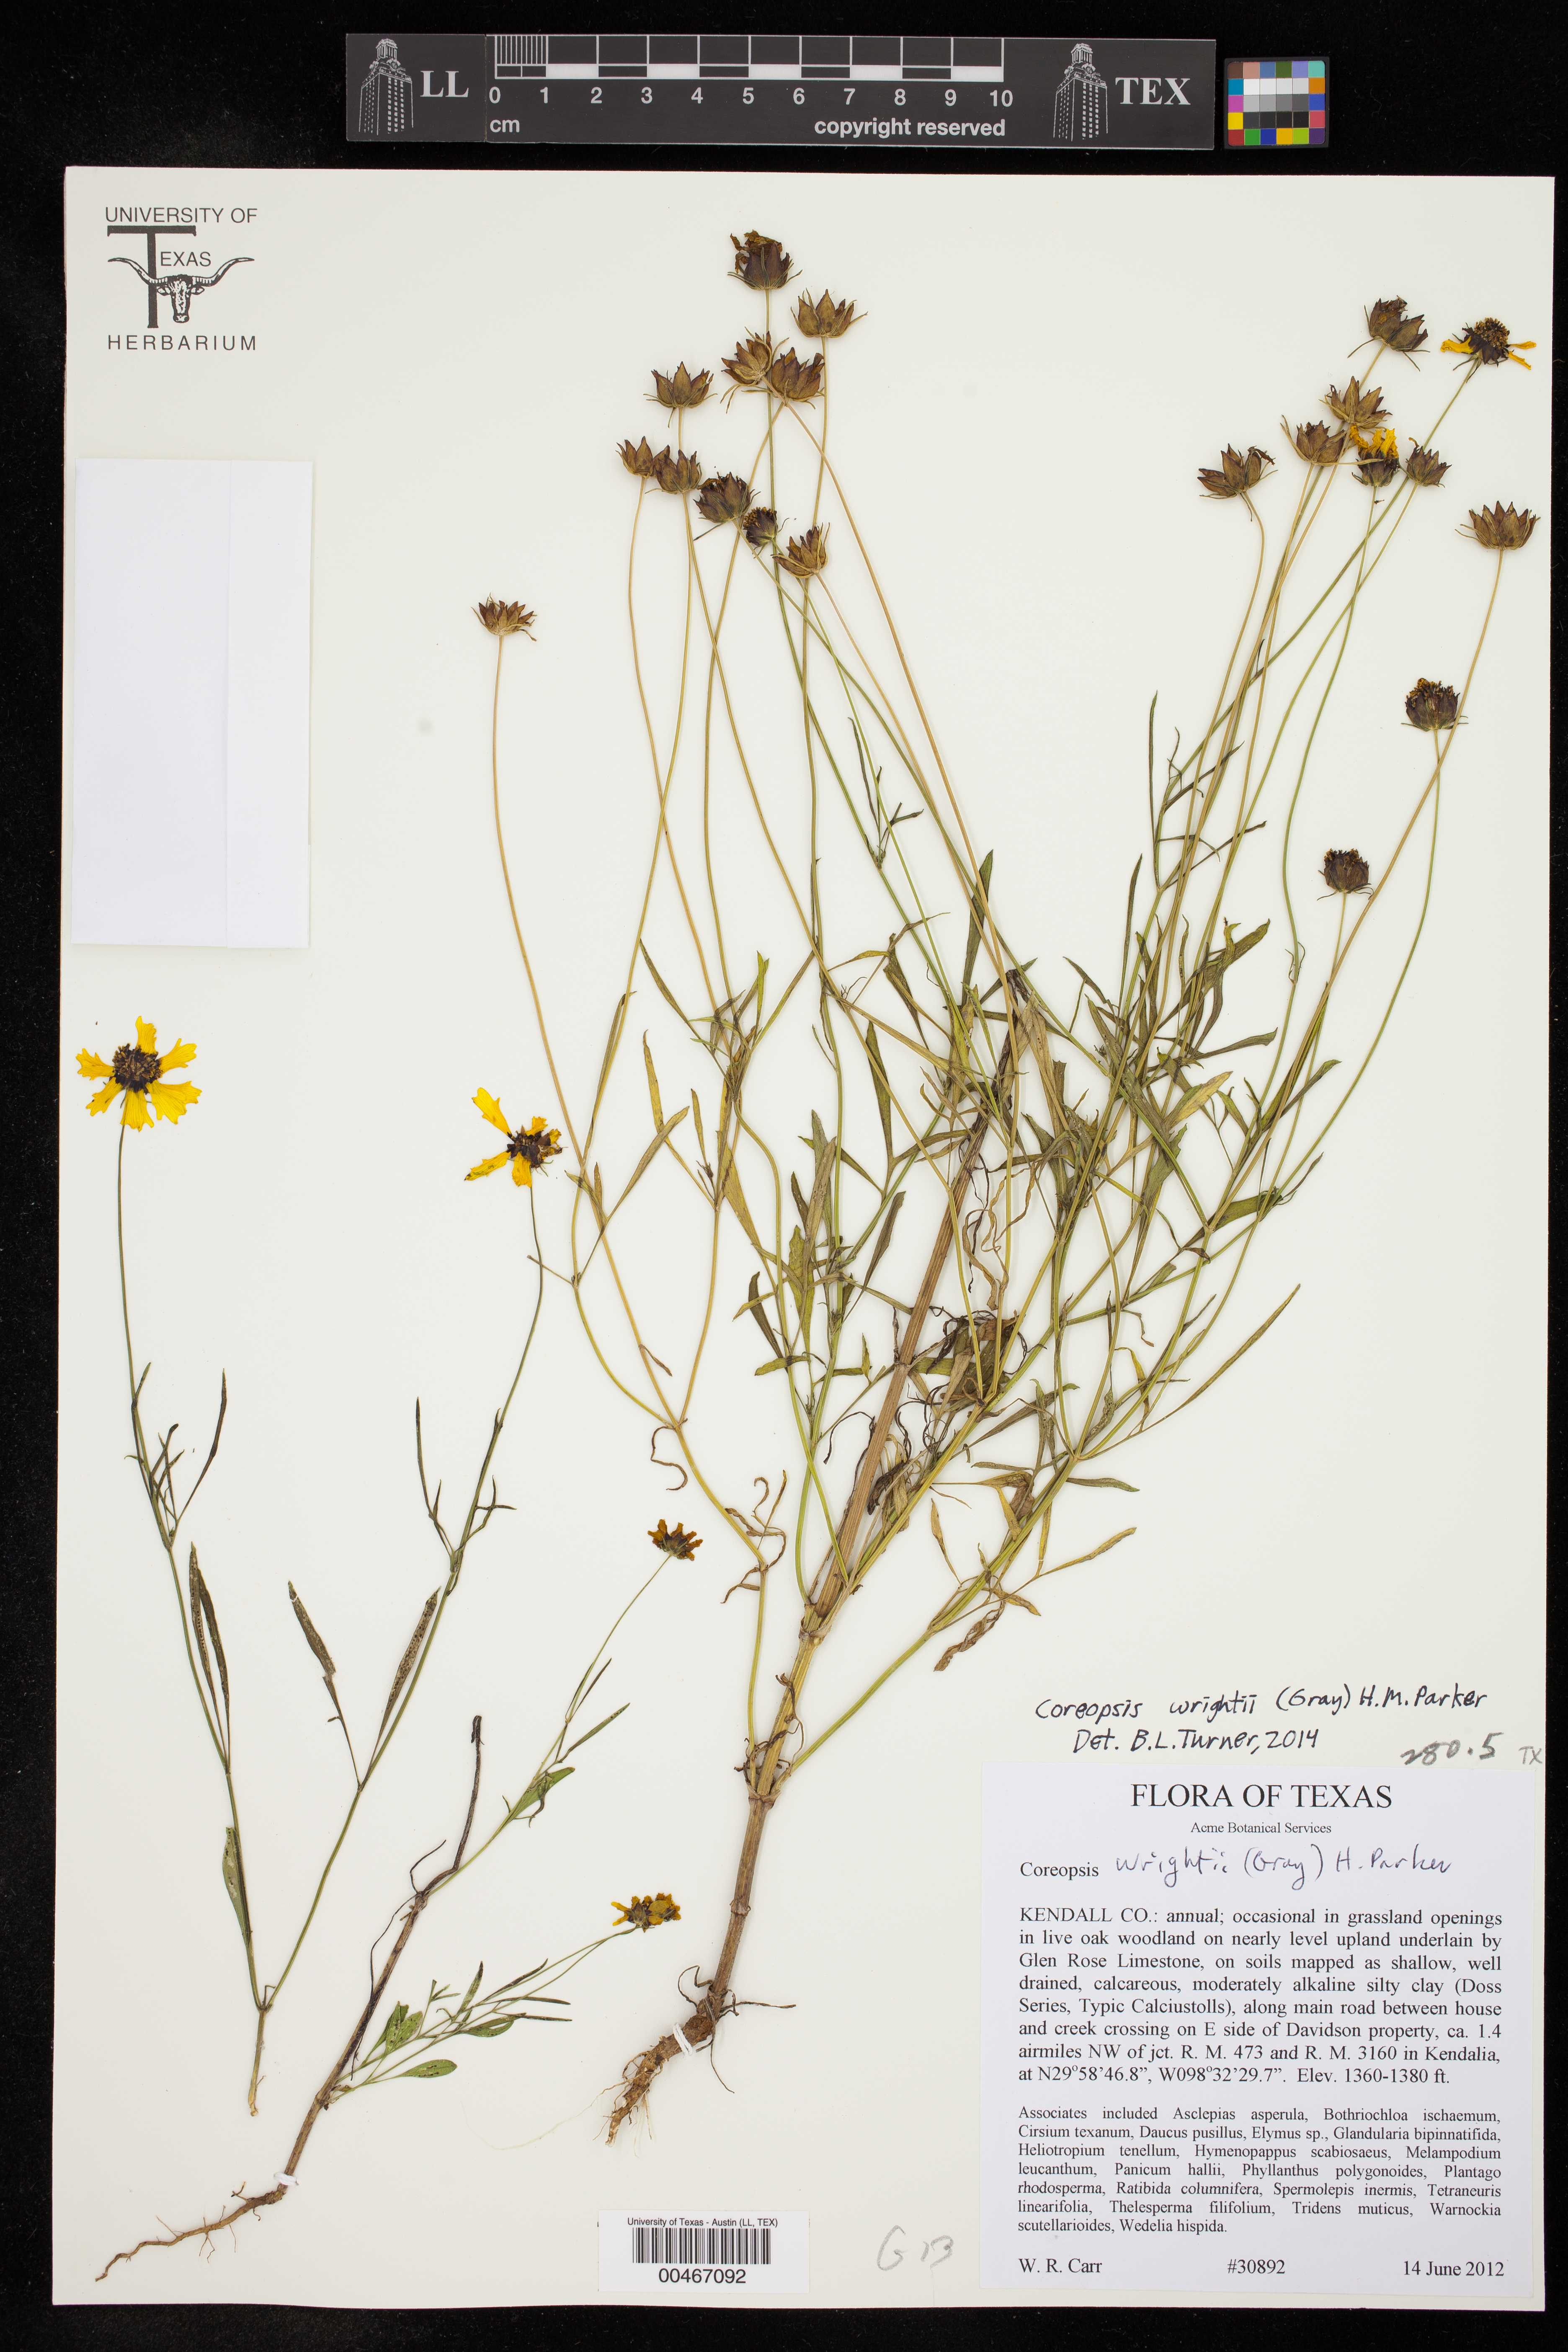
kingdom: Plantae
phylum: Tracheophyta
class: Magnoliopsida
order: Asterales
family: Asteraceae
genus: Coreopsis
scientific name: Coreopsis basalis
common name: Golden-mane coreopsis
